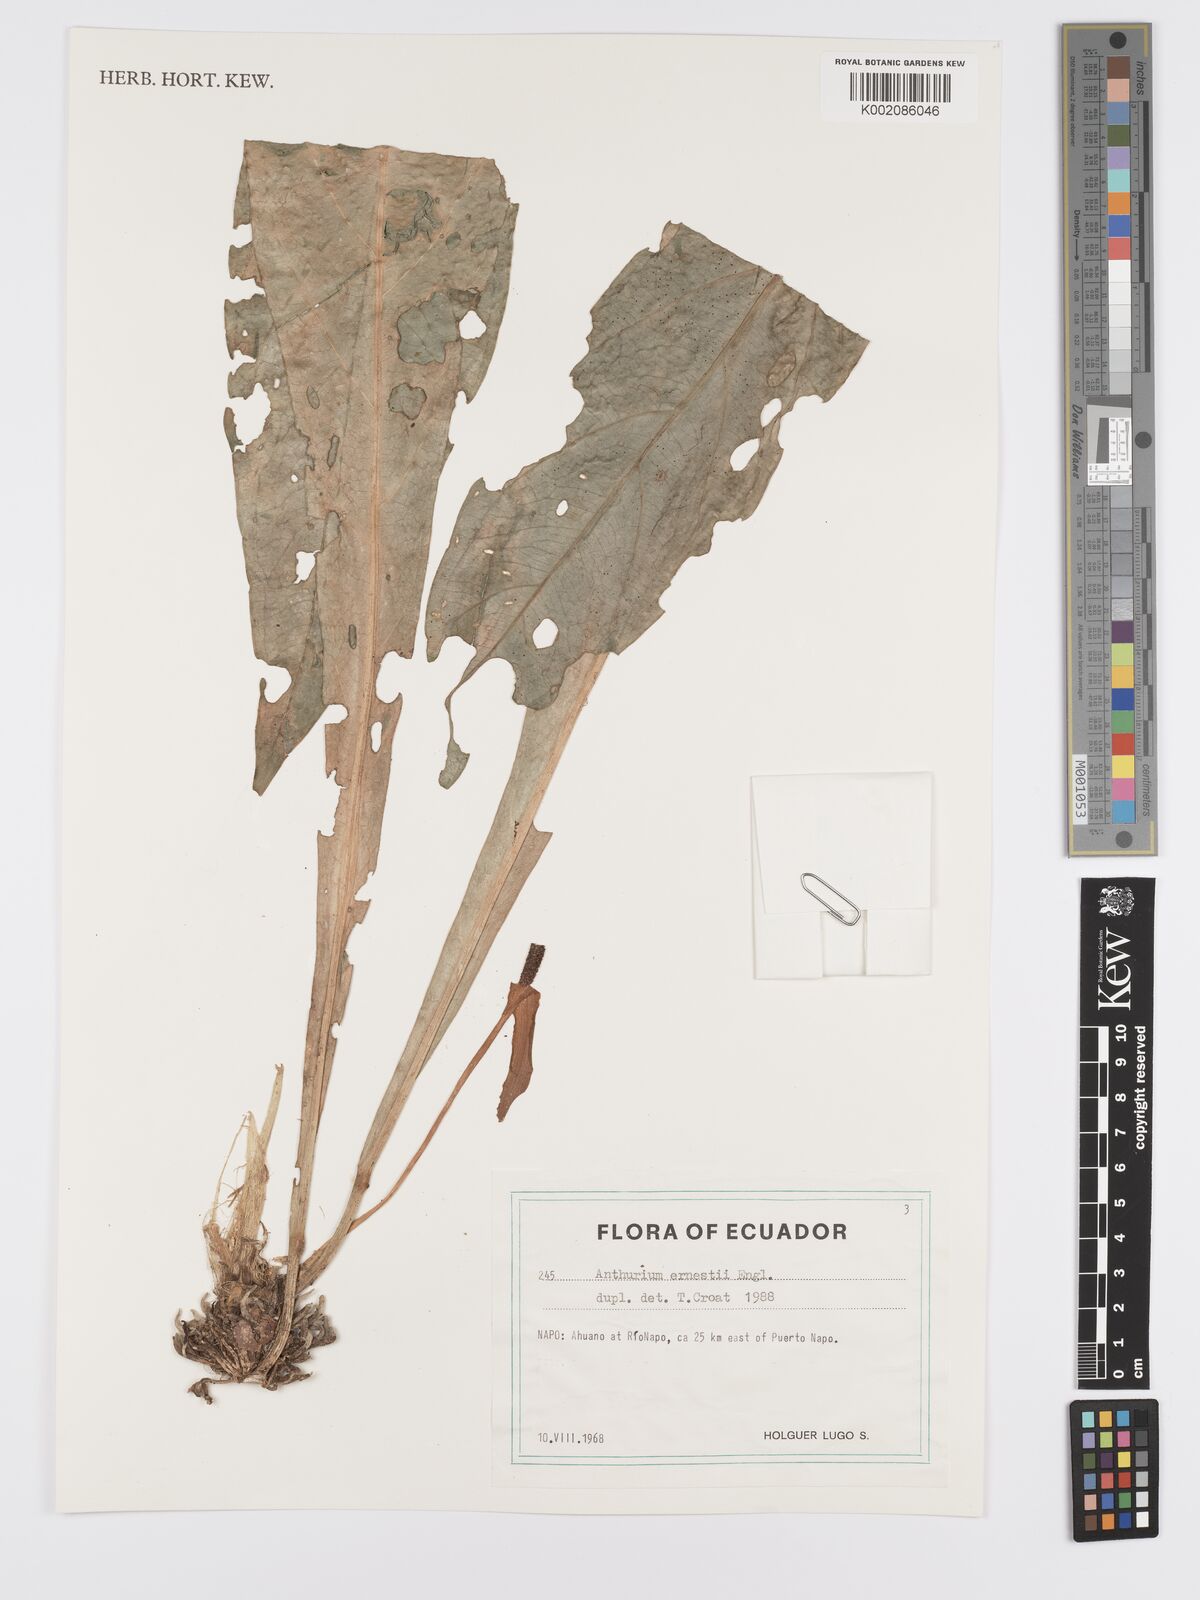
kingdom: Plantae
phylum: Tracheophyta
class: Liliopsida
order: Alismatales
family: Araceae
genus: Anthurium
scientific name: Anthurium ernesti
